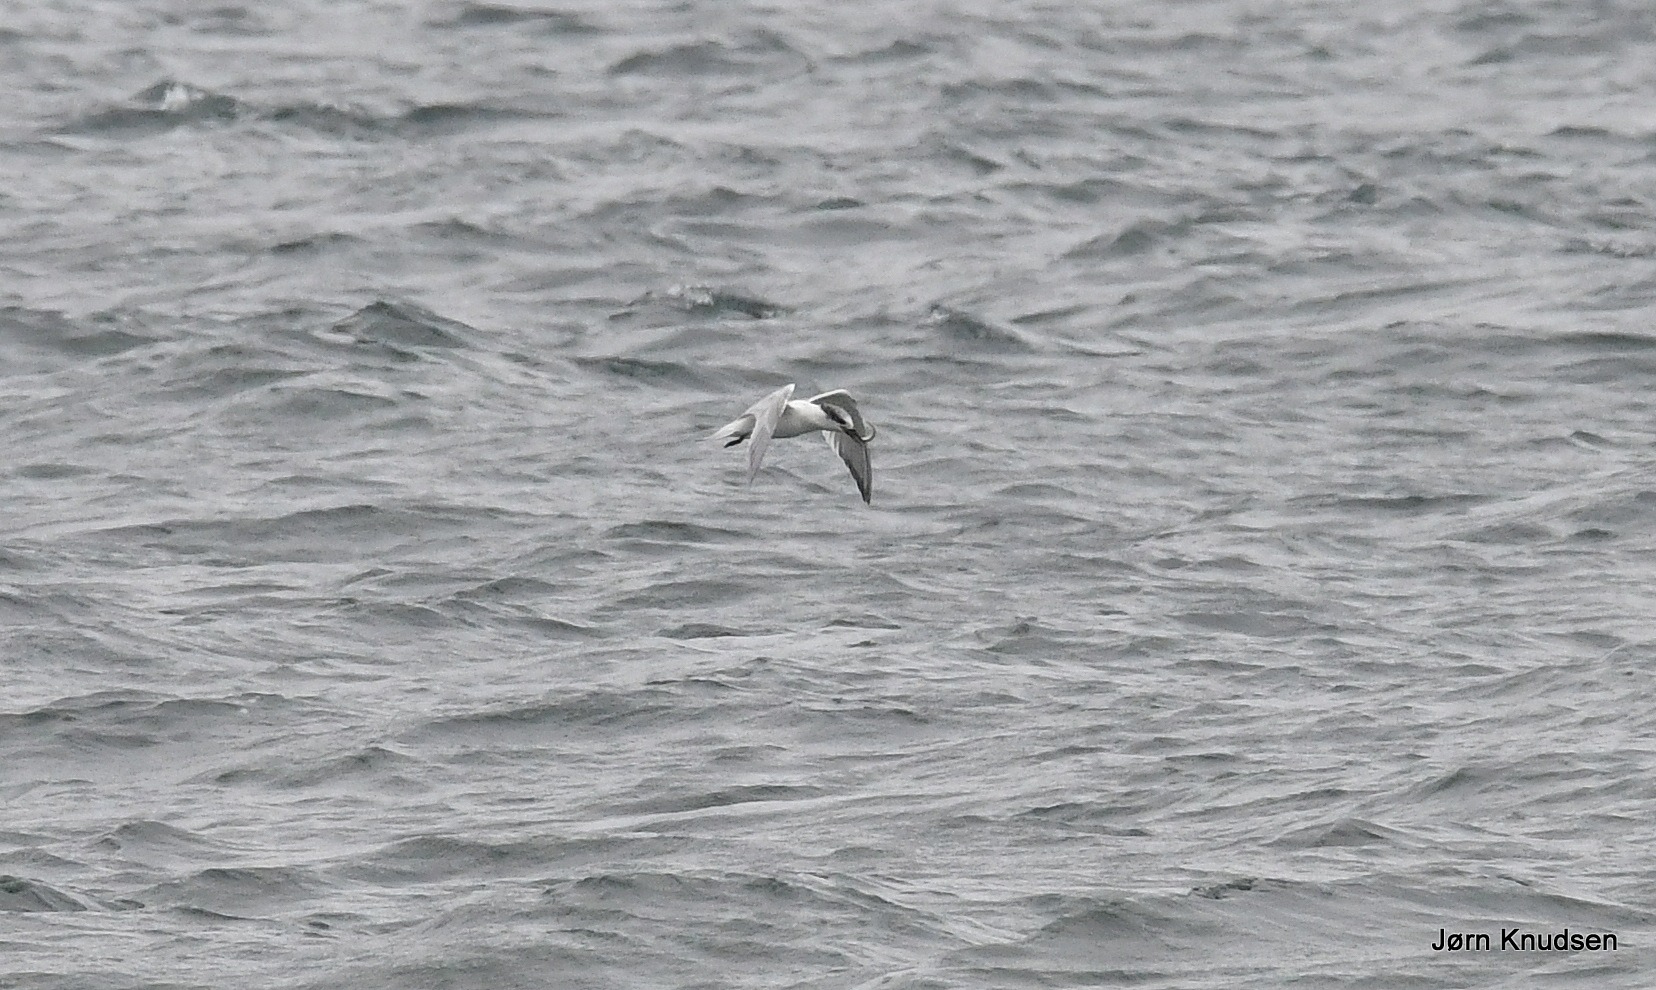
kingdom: Animalia
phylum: Chordata
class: Aves
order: Charadriiformes
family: Laridae
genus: Thalasseus
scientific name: Thalasseus sandvicensis
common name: Splitterne
